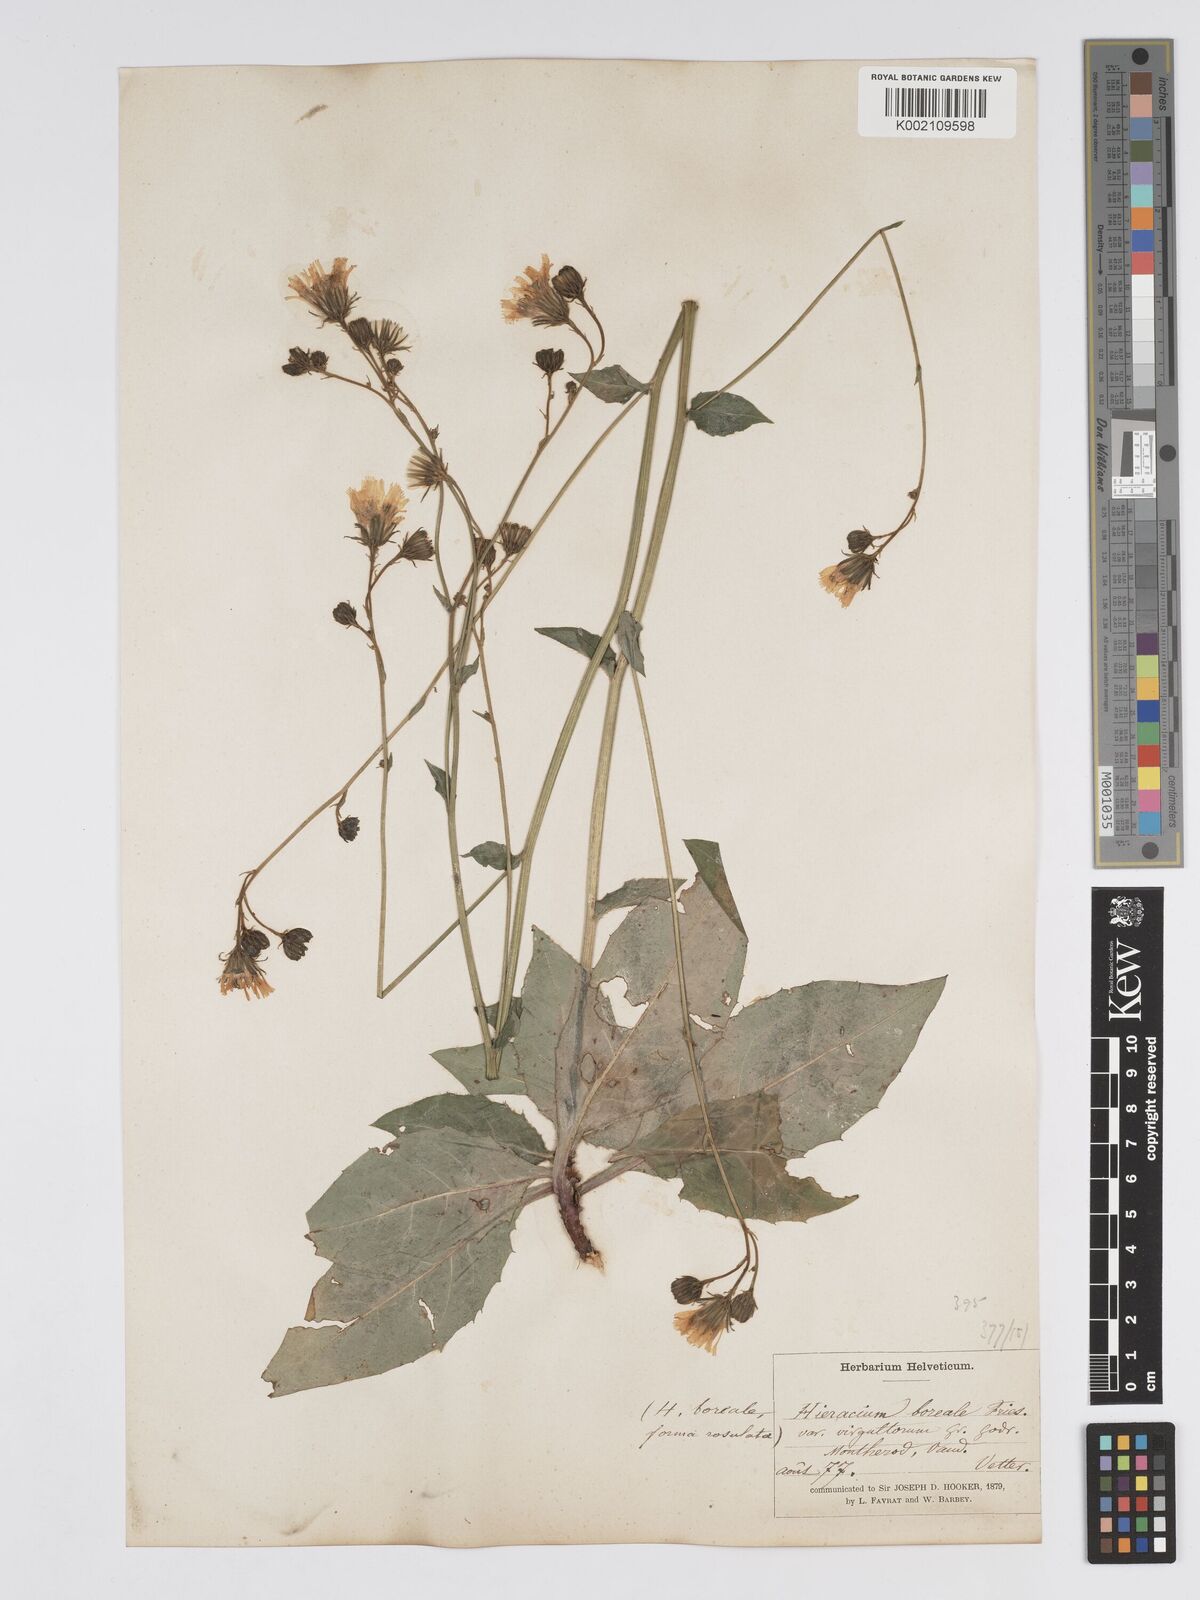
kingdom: Plantae
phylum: Tracheophyta
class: Magnoliopsida
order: Asterales
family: Asteraceae
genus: Hieracium
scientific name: Hieracium racemosum
